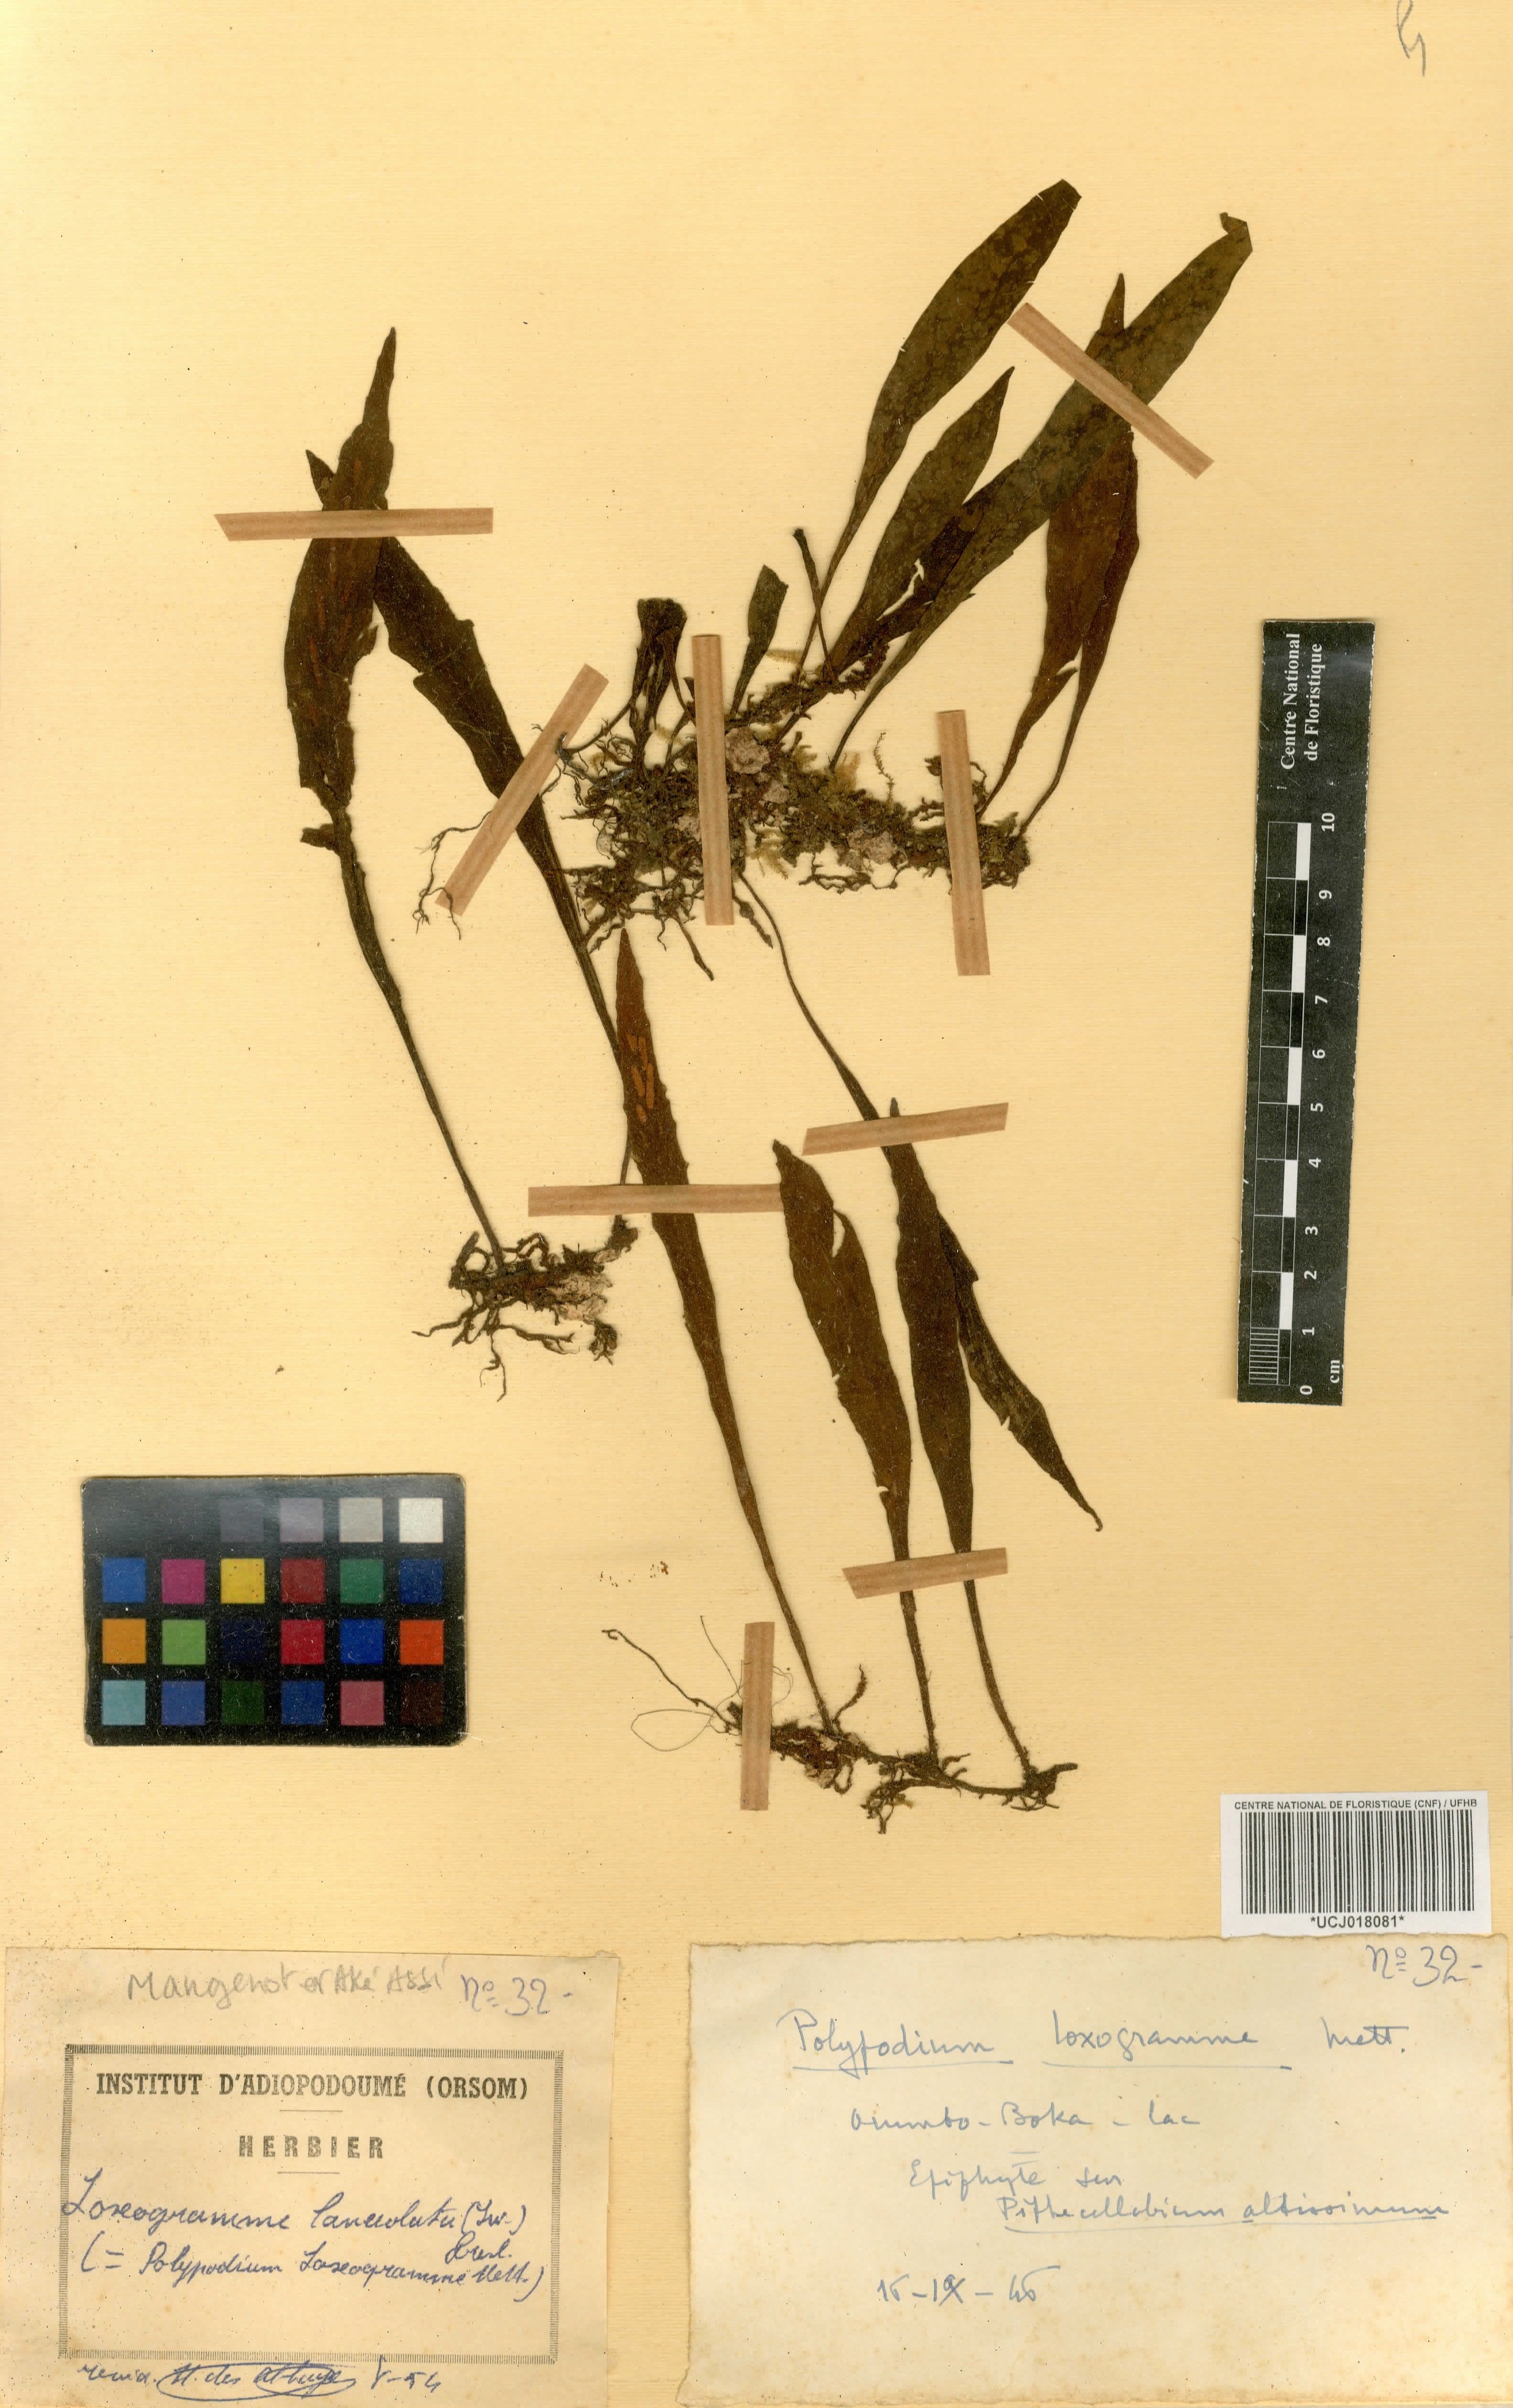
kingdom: Plantae
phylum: Tracheophyta
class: Polypodiopsida
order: Polypodiales
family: Polypodiaceae
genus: Loxogramme
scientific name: Loxogramme lanceolata
